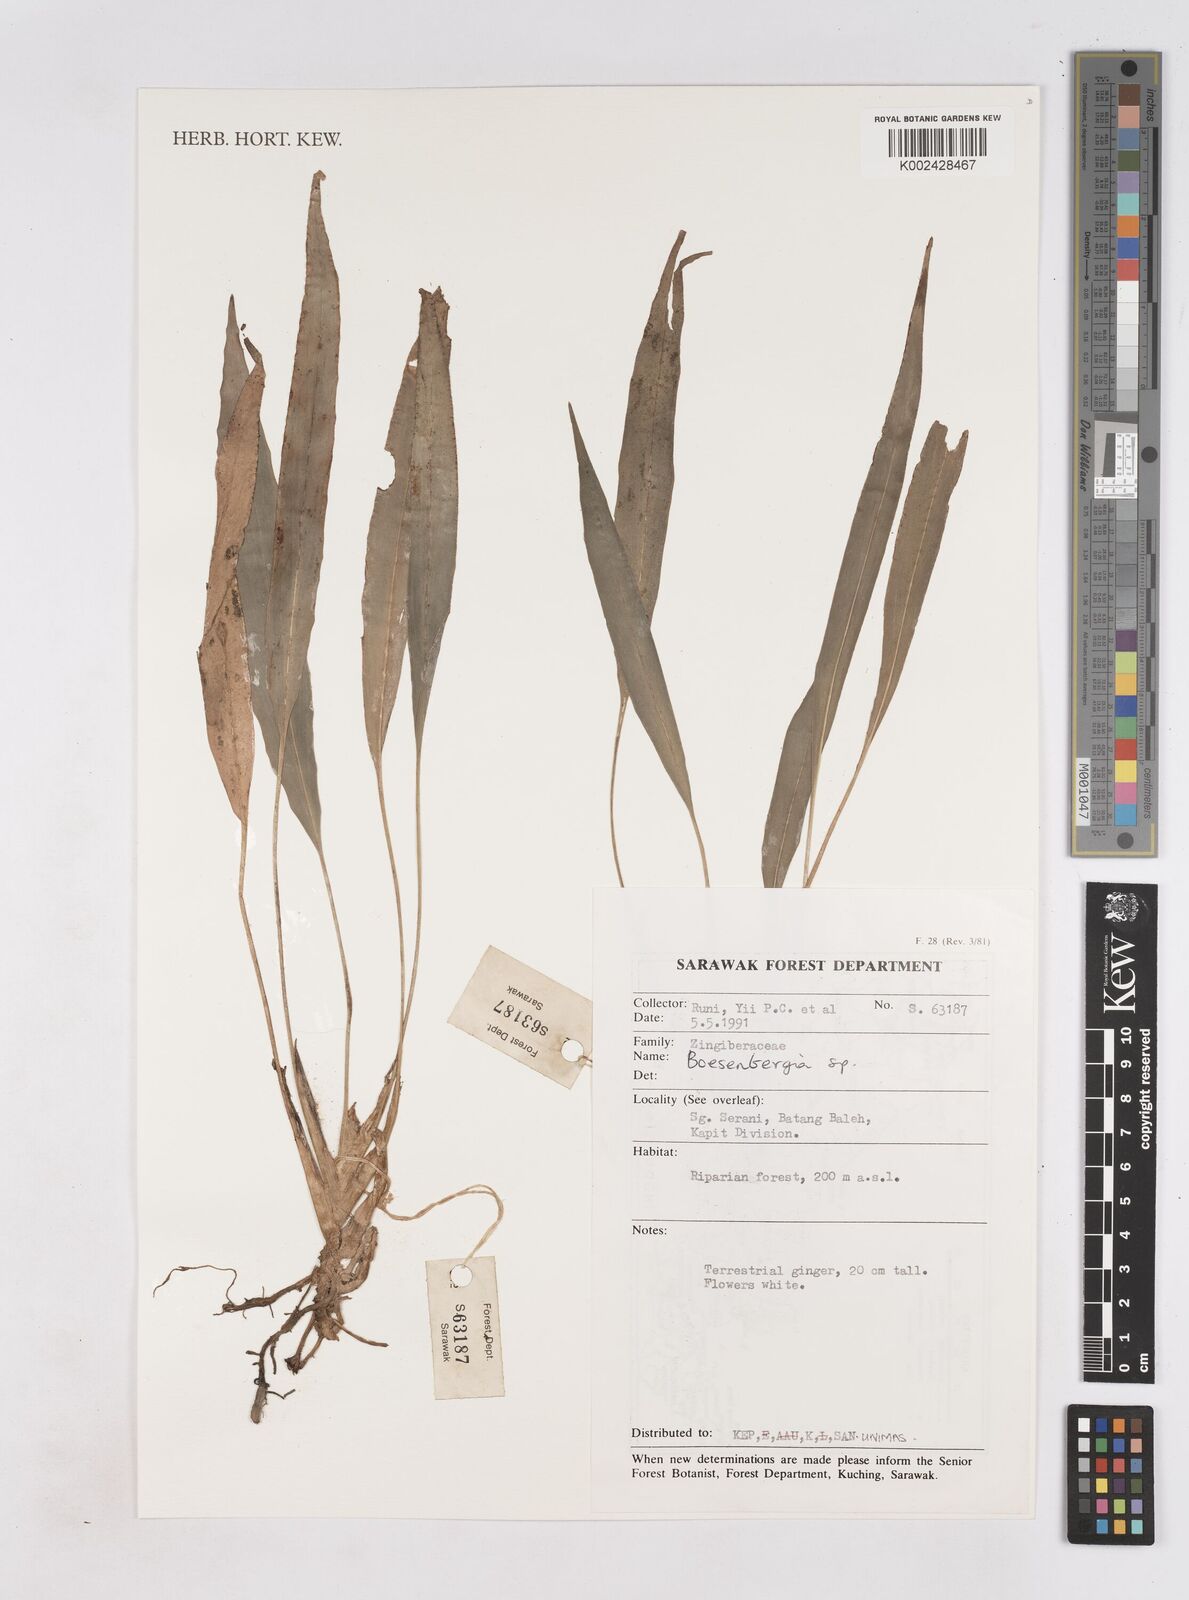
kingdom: Plantae
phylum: Tracheophyta
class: Liliopsida
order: Zingiberales
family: Zingiberaceae
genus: Boesenbergia
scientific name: Boesenbergia stenophylla
